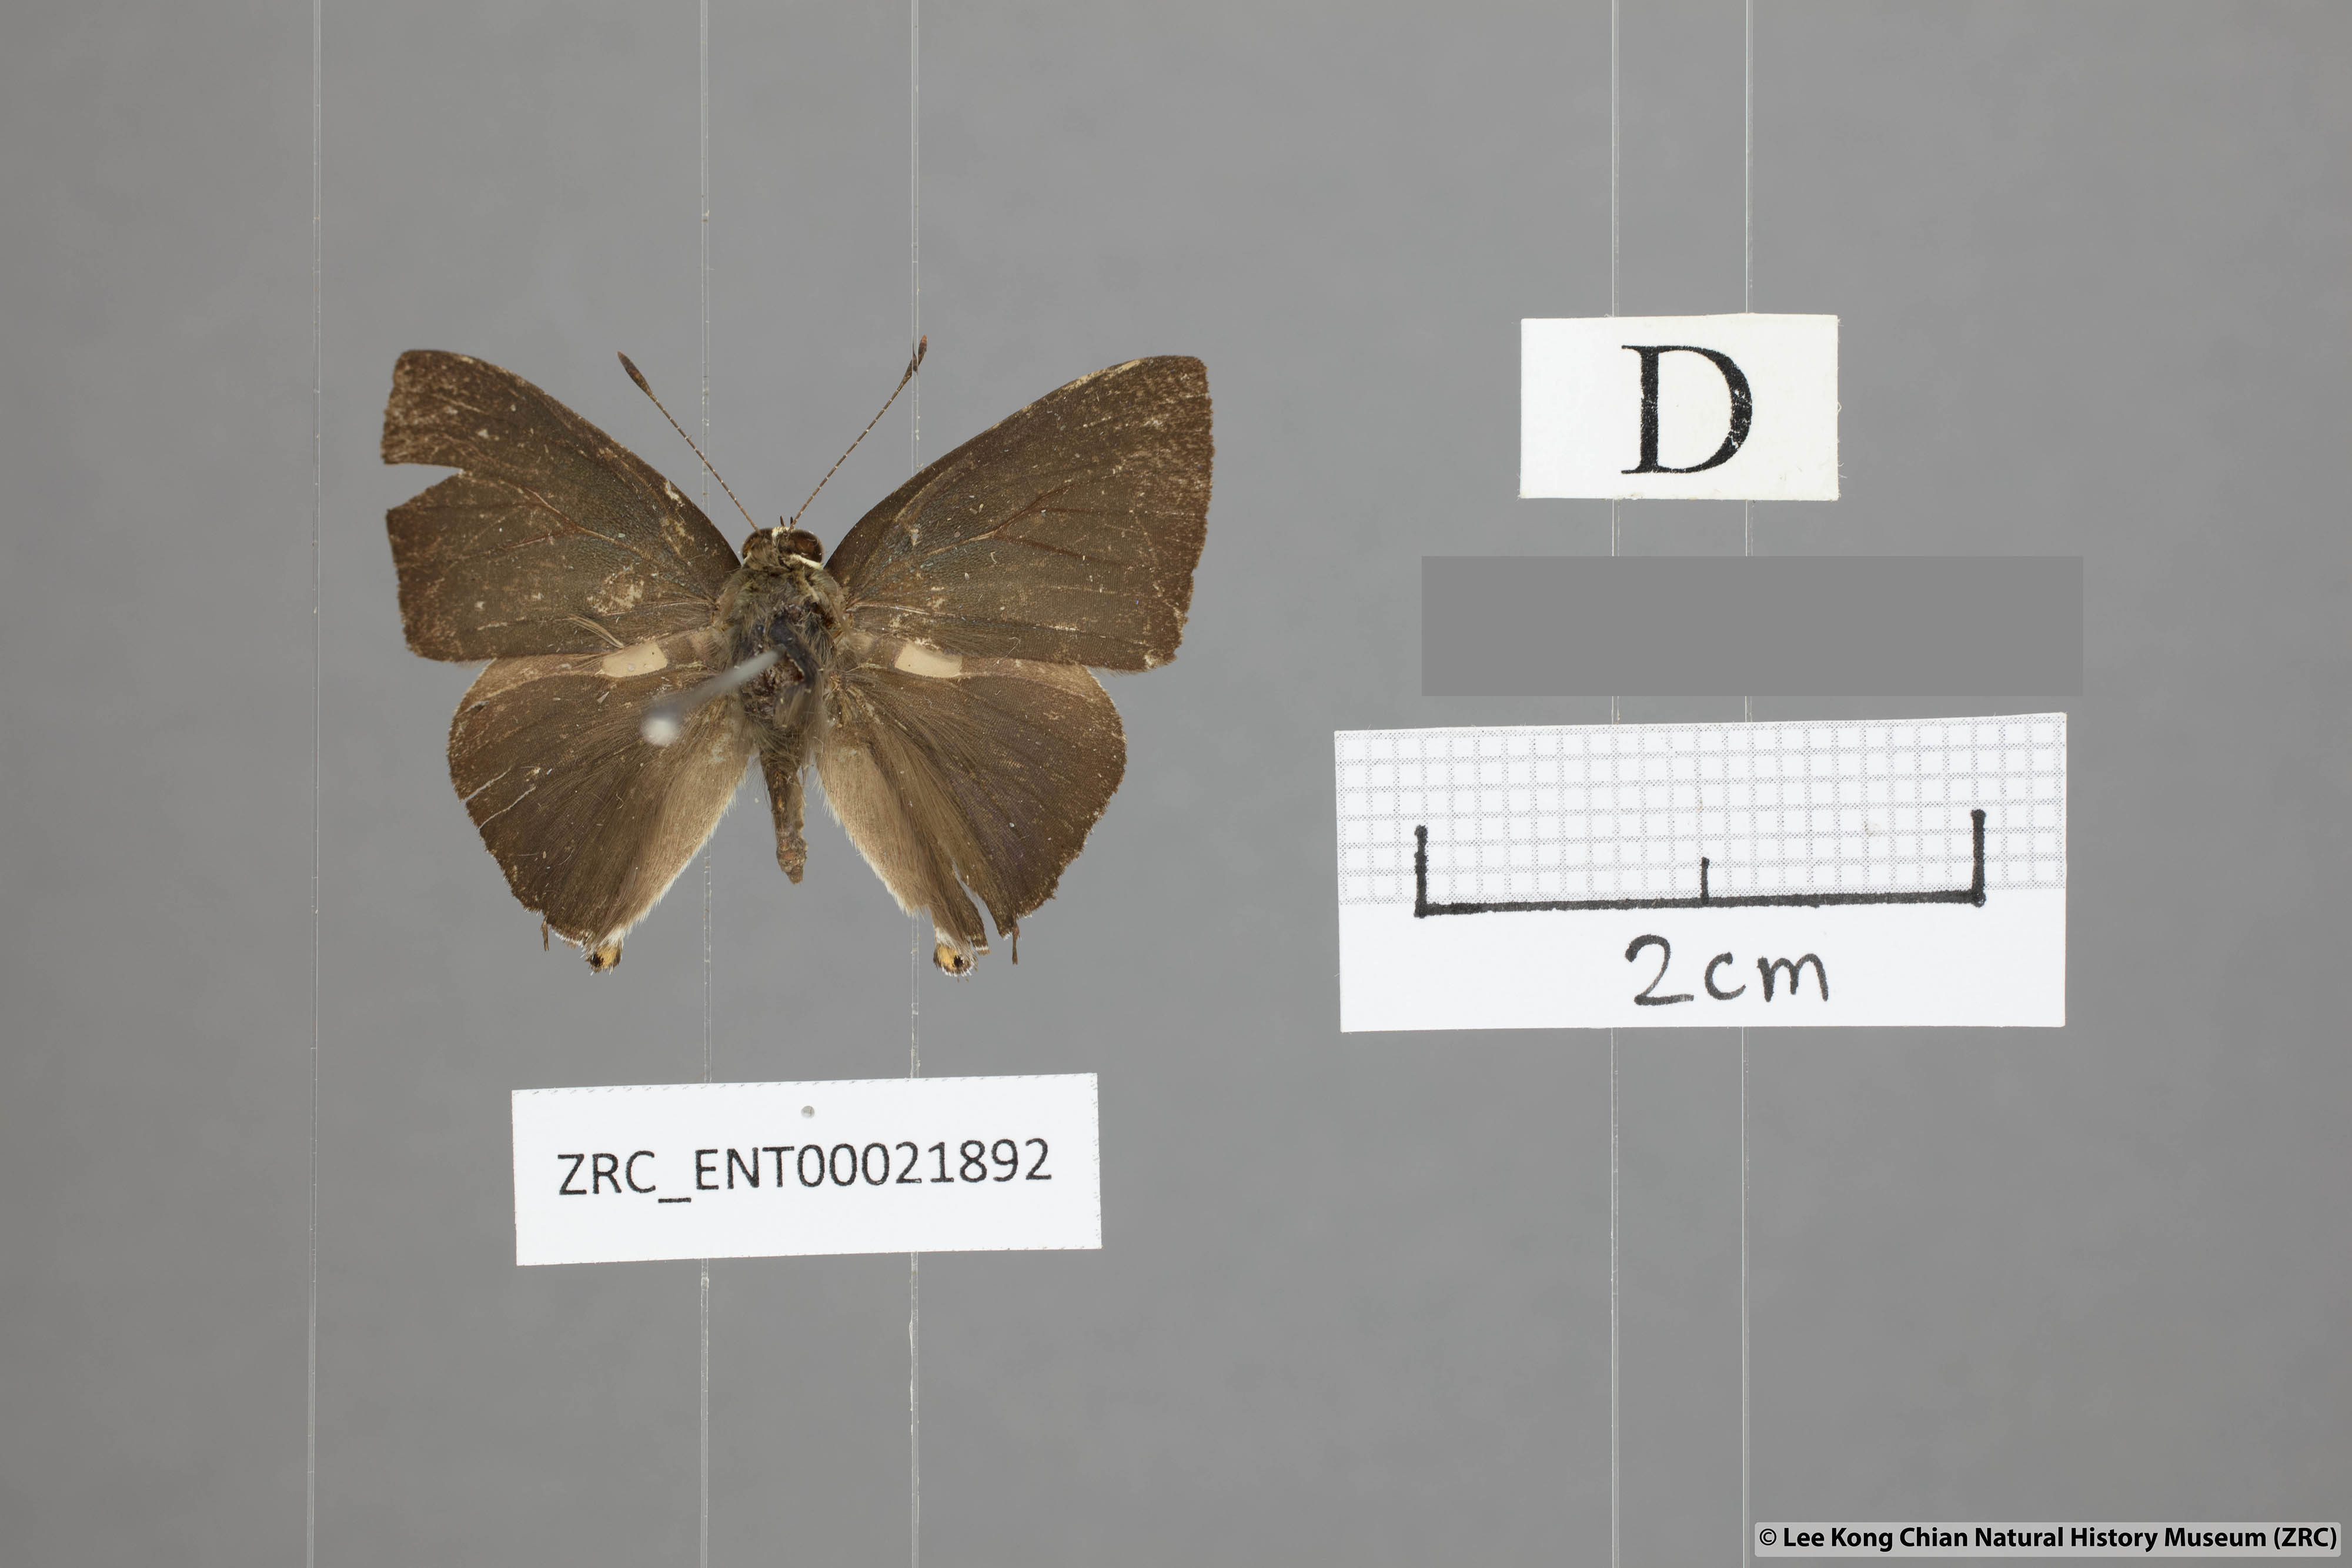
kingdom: Animalia
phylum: Arthropoda
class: Insecta
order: Lepidoptera
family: Lycaenidae
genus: Rapala
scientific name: Rapala scintilla
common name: Scarce slate flash
